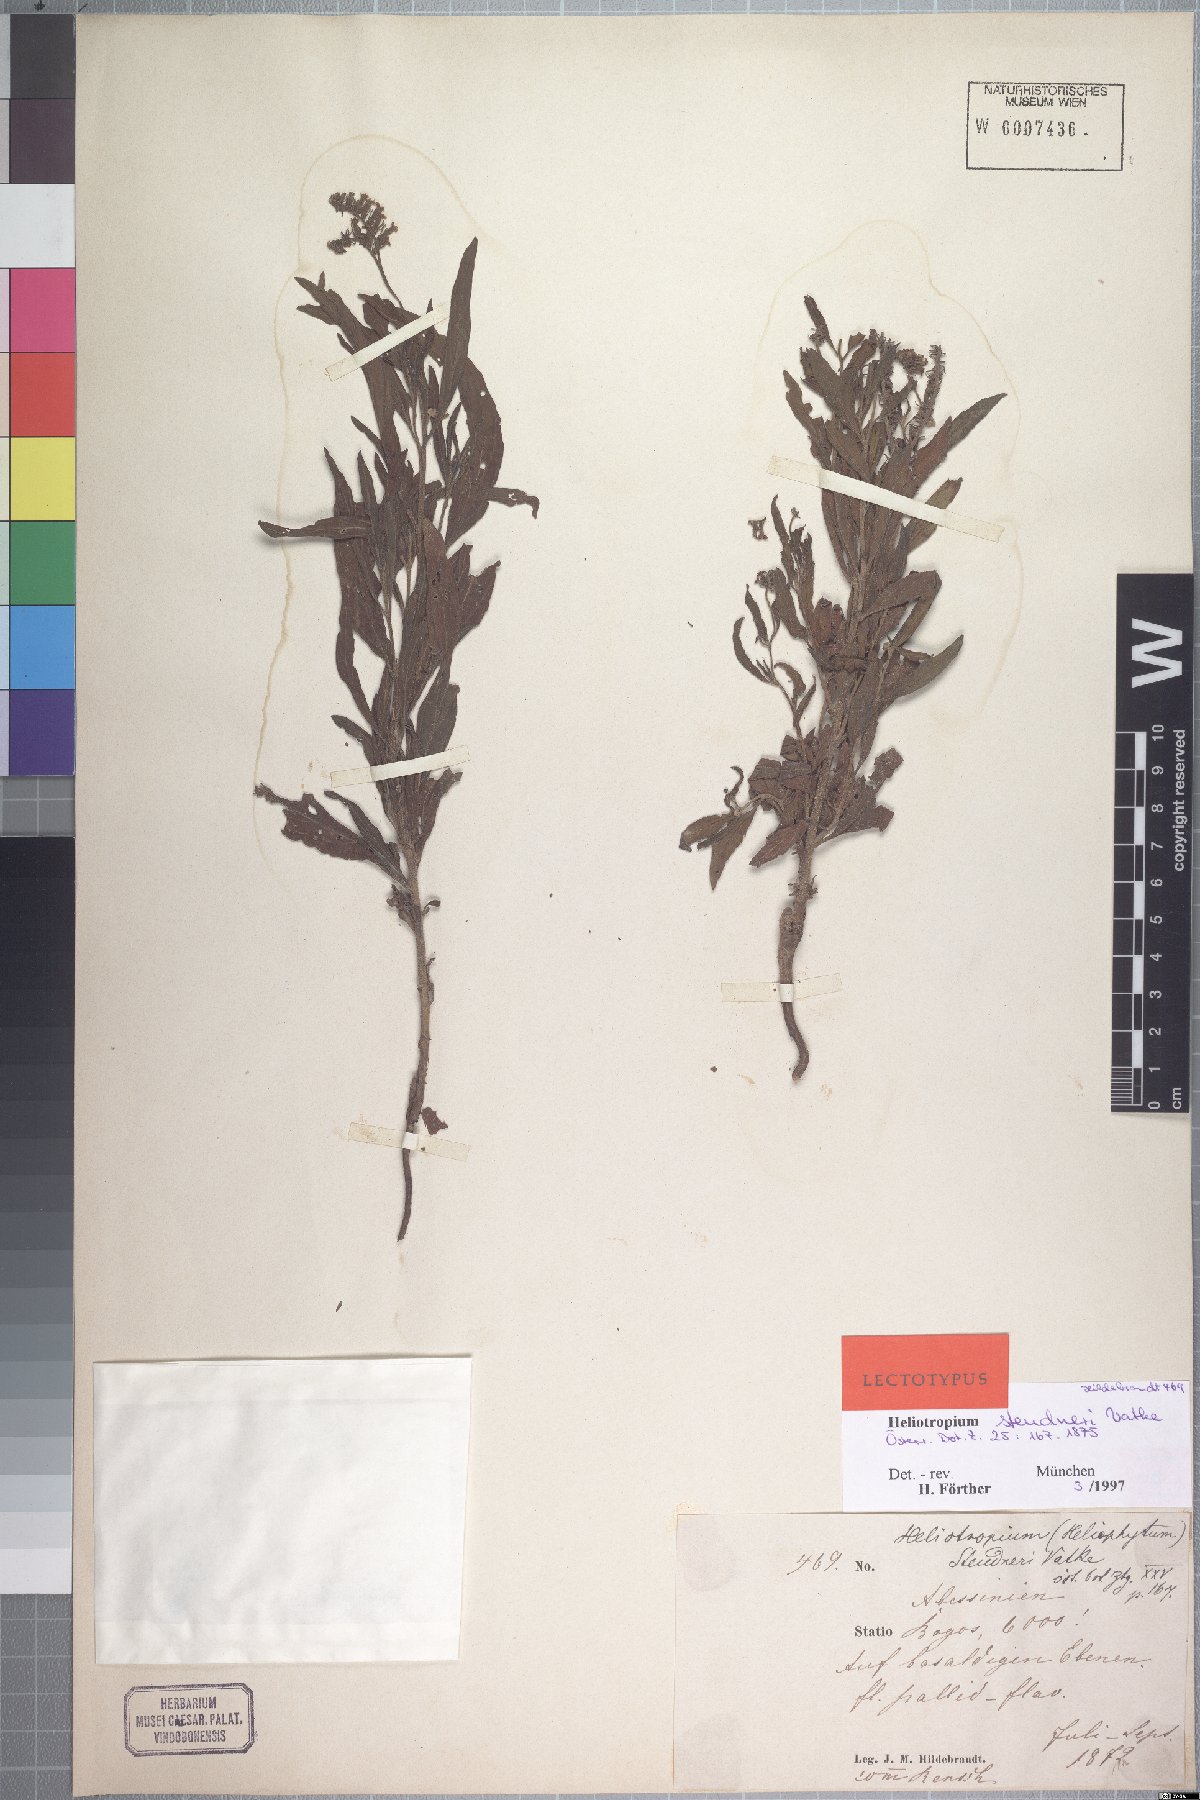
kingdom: Plantae
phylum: Tracheophyta
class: Magnoliopsida
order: Boraginales
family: Heliotropiaceae
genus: Heliotropium
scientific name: Heliotropium steudneri
